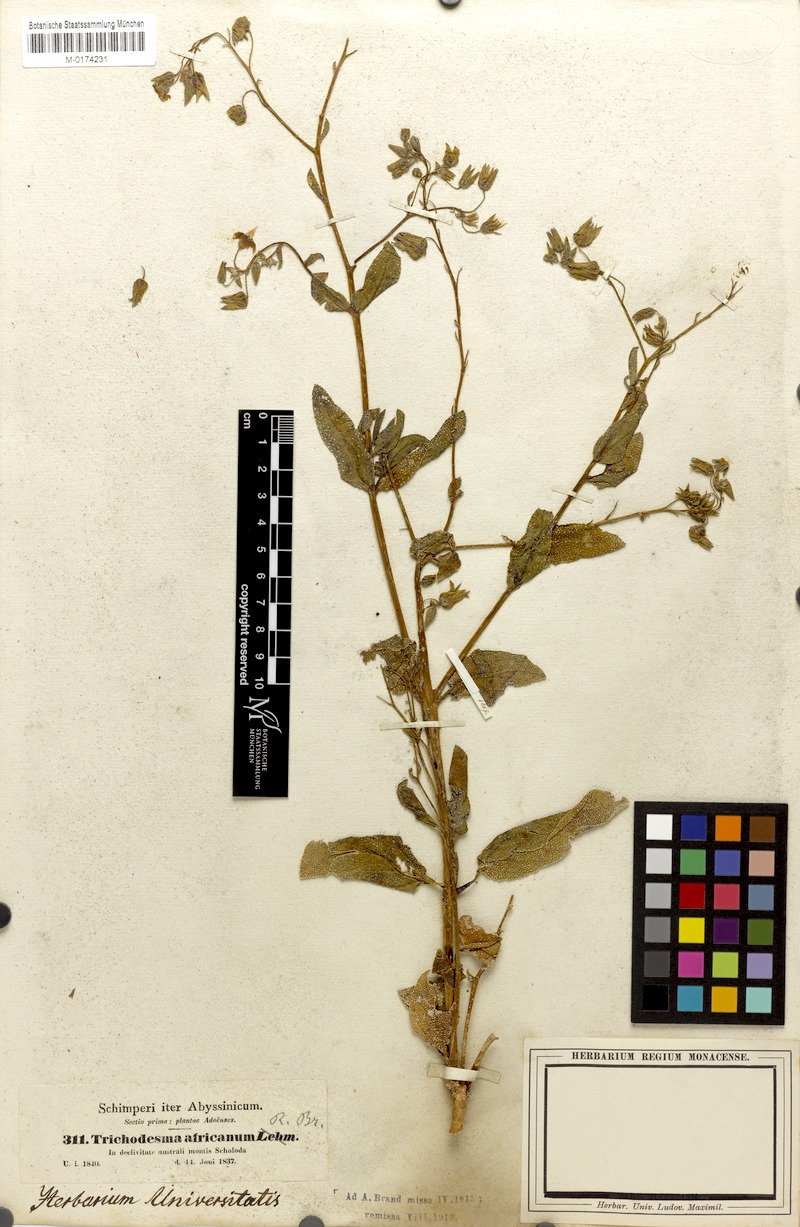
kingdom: Plantae
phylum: Tracheophyta
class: Magnoliopsida
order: Boraginales
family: Boraginaceae
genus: Trichodesma
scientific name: Trichodesma africanum
